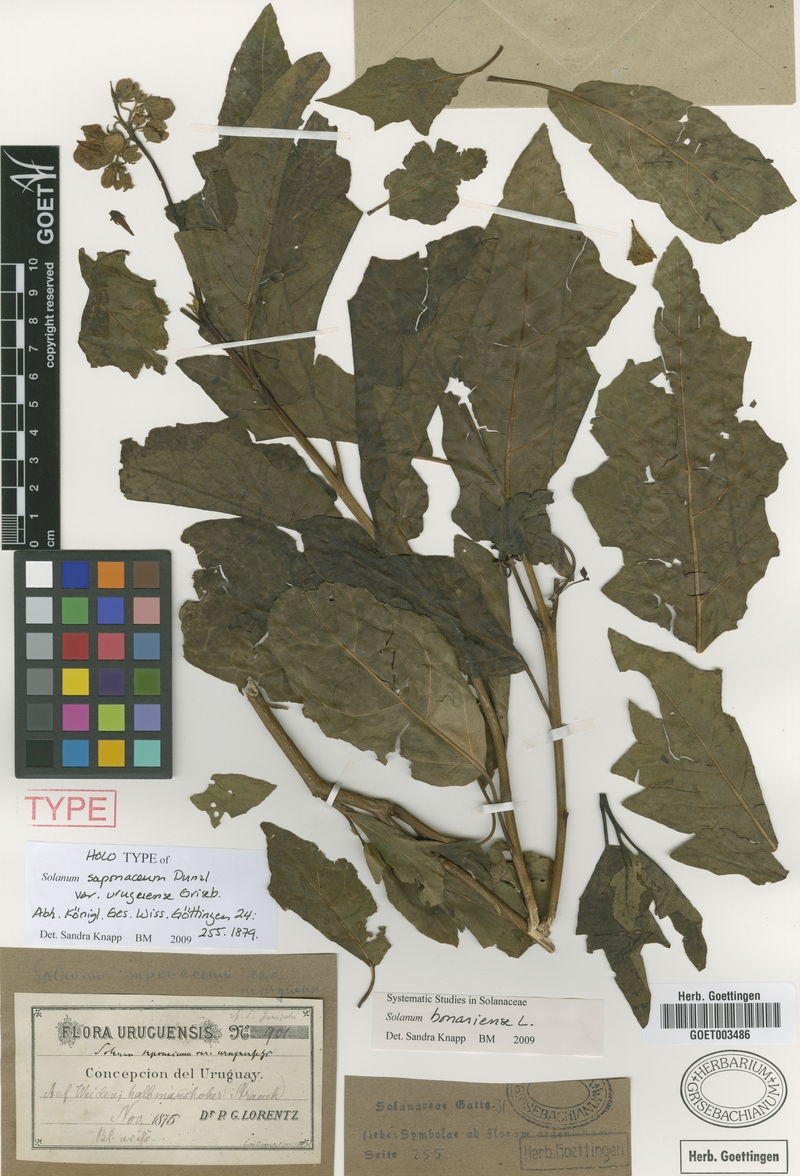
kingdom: Plantae
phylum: Tracheophyta
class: Magnoliopsida
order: Solanales
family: Solanaceae
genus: Solanum
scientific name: Solanum bonariense
